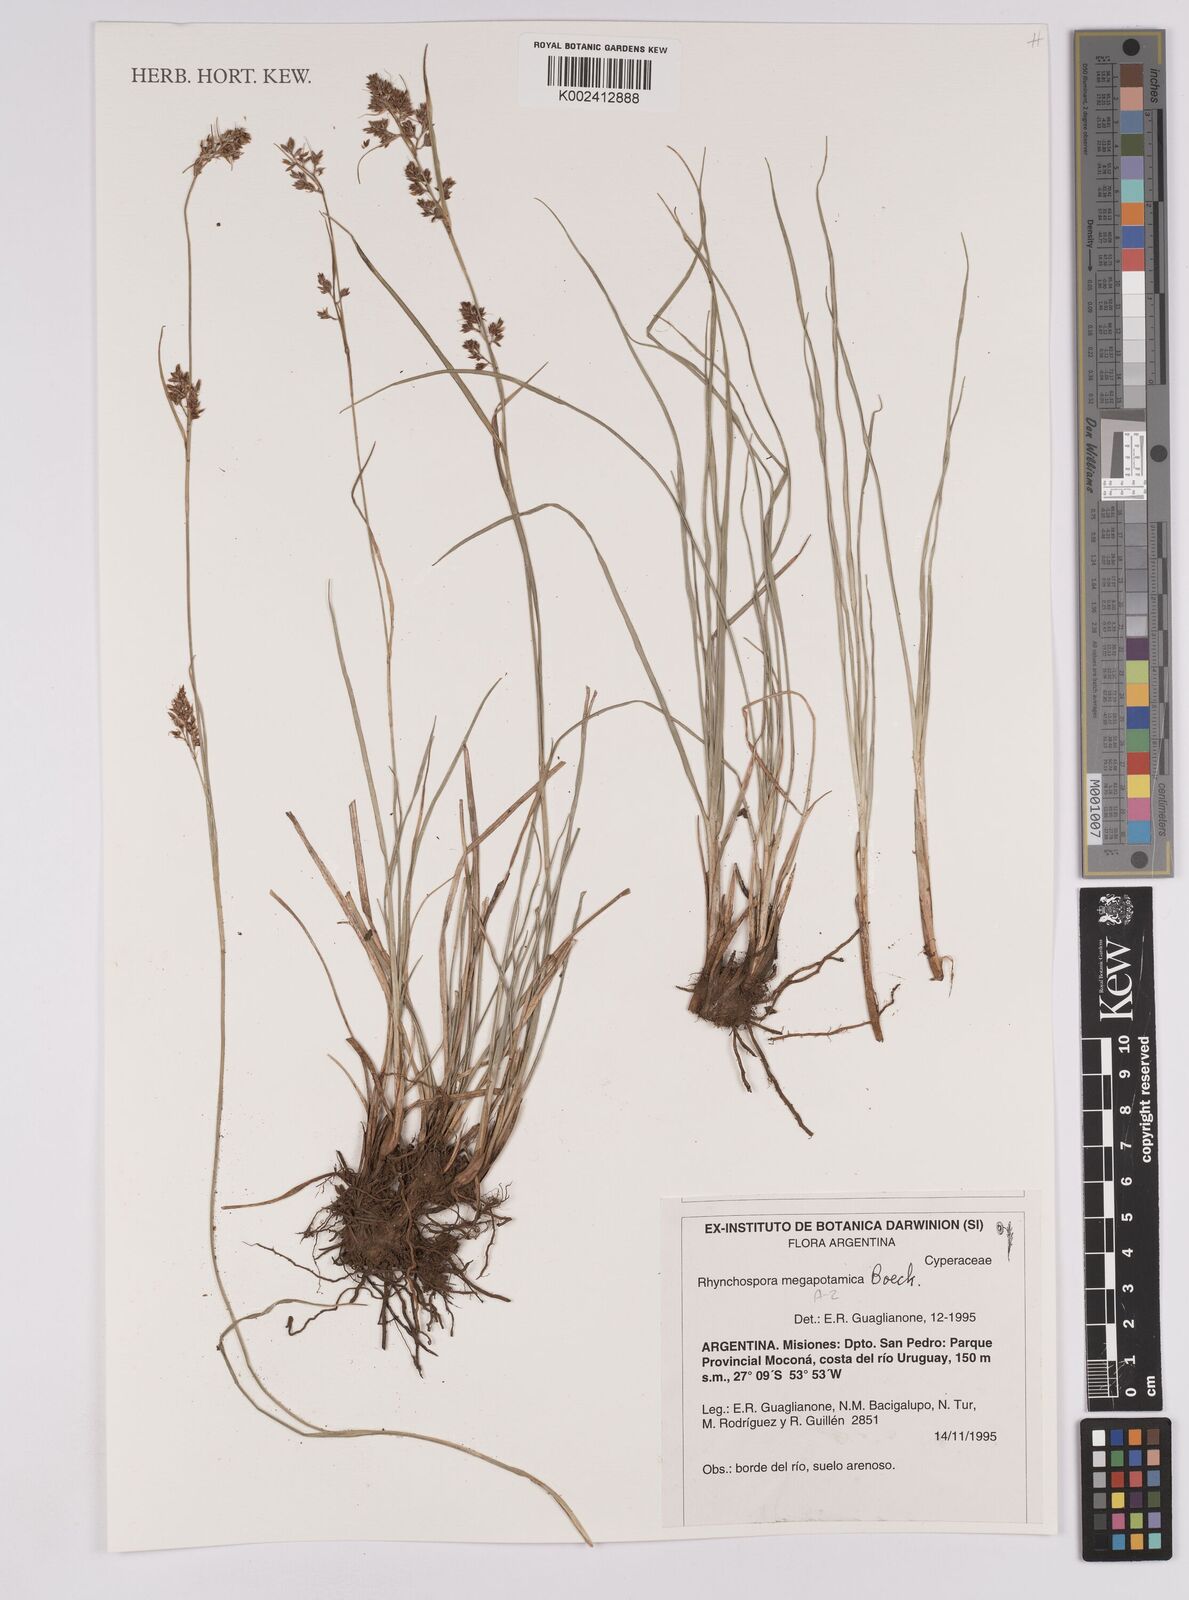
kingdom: Plantae
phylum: Tracheophyta
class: Liliopsida
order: Poales
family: Cyperaceae
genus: Rhynchospora
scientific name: Rhynchospora megapotamica
